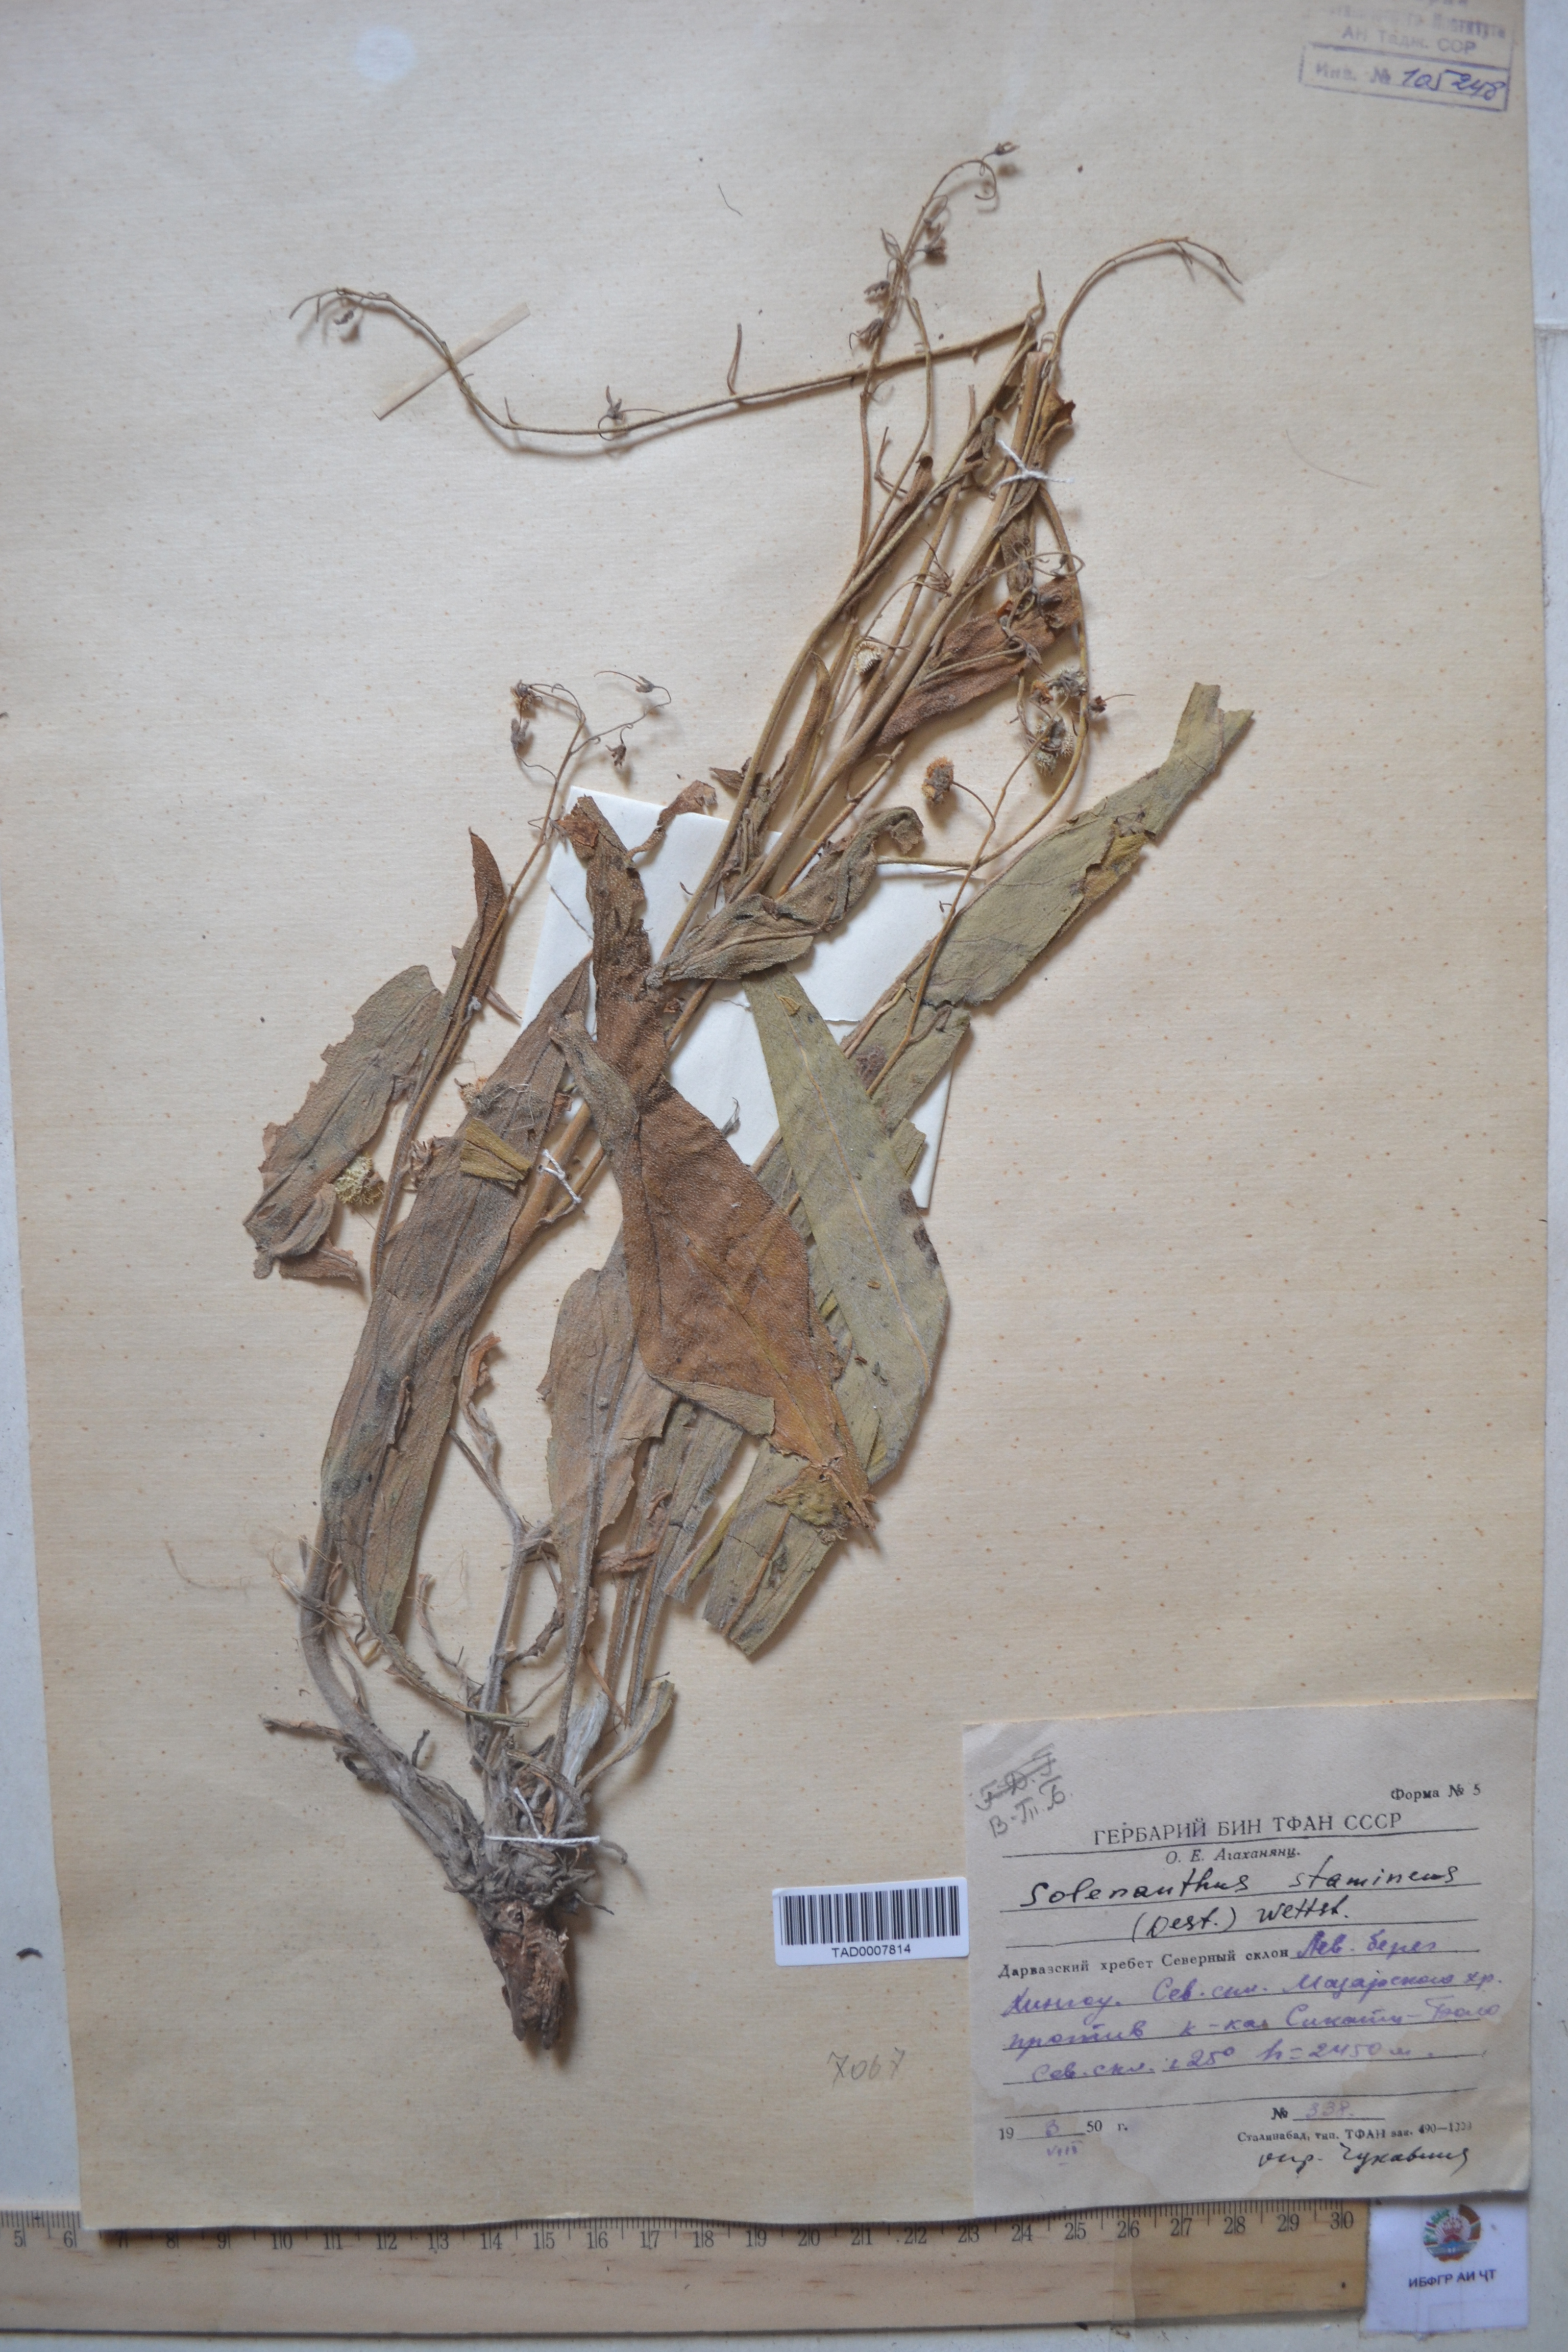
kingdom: Plantae
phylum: Tracheophyta
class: Magnoliopsida
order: Boraginales
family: Boraginaceae
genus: Solenanthus
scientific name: Solenanthus stamineus
